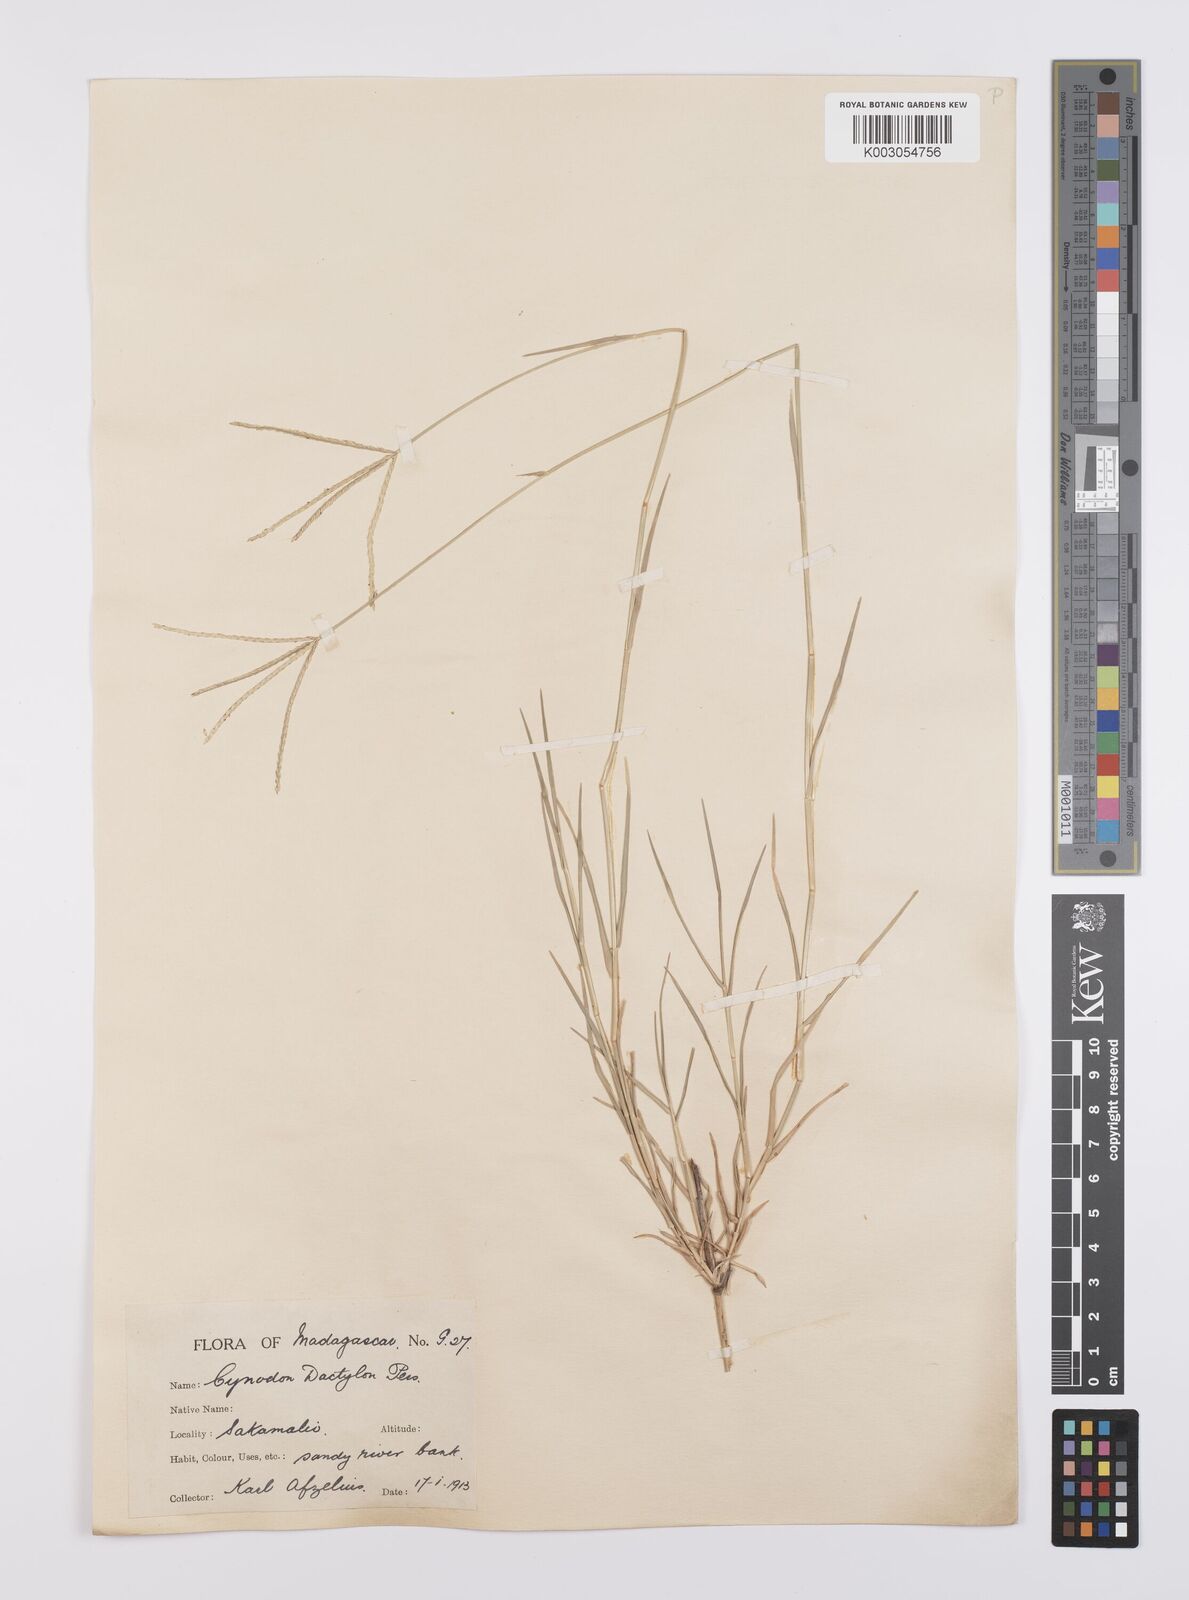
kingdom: Plantae
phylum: Tracheophyta
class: Liliopsida
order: Poales
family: Poaceae
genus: Cynodon
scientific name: Cynodon dactylon
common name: Bermuda grass
